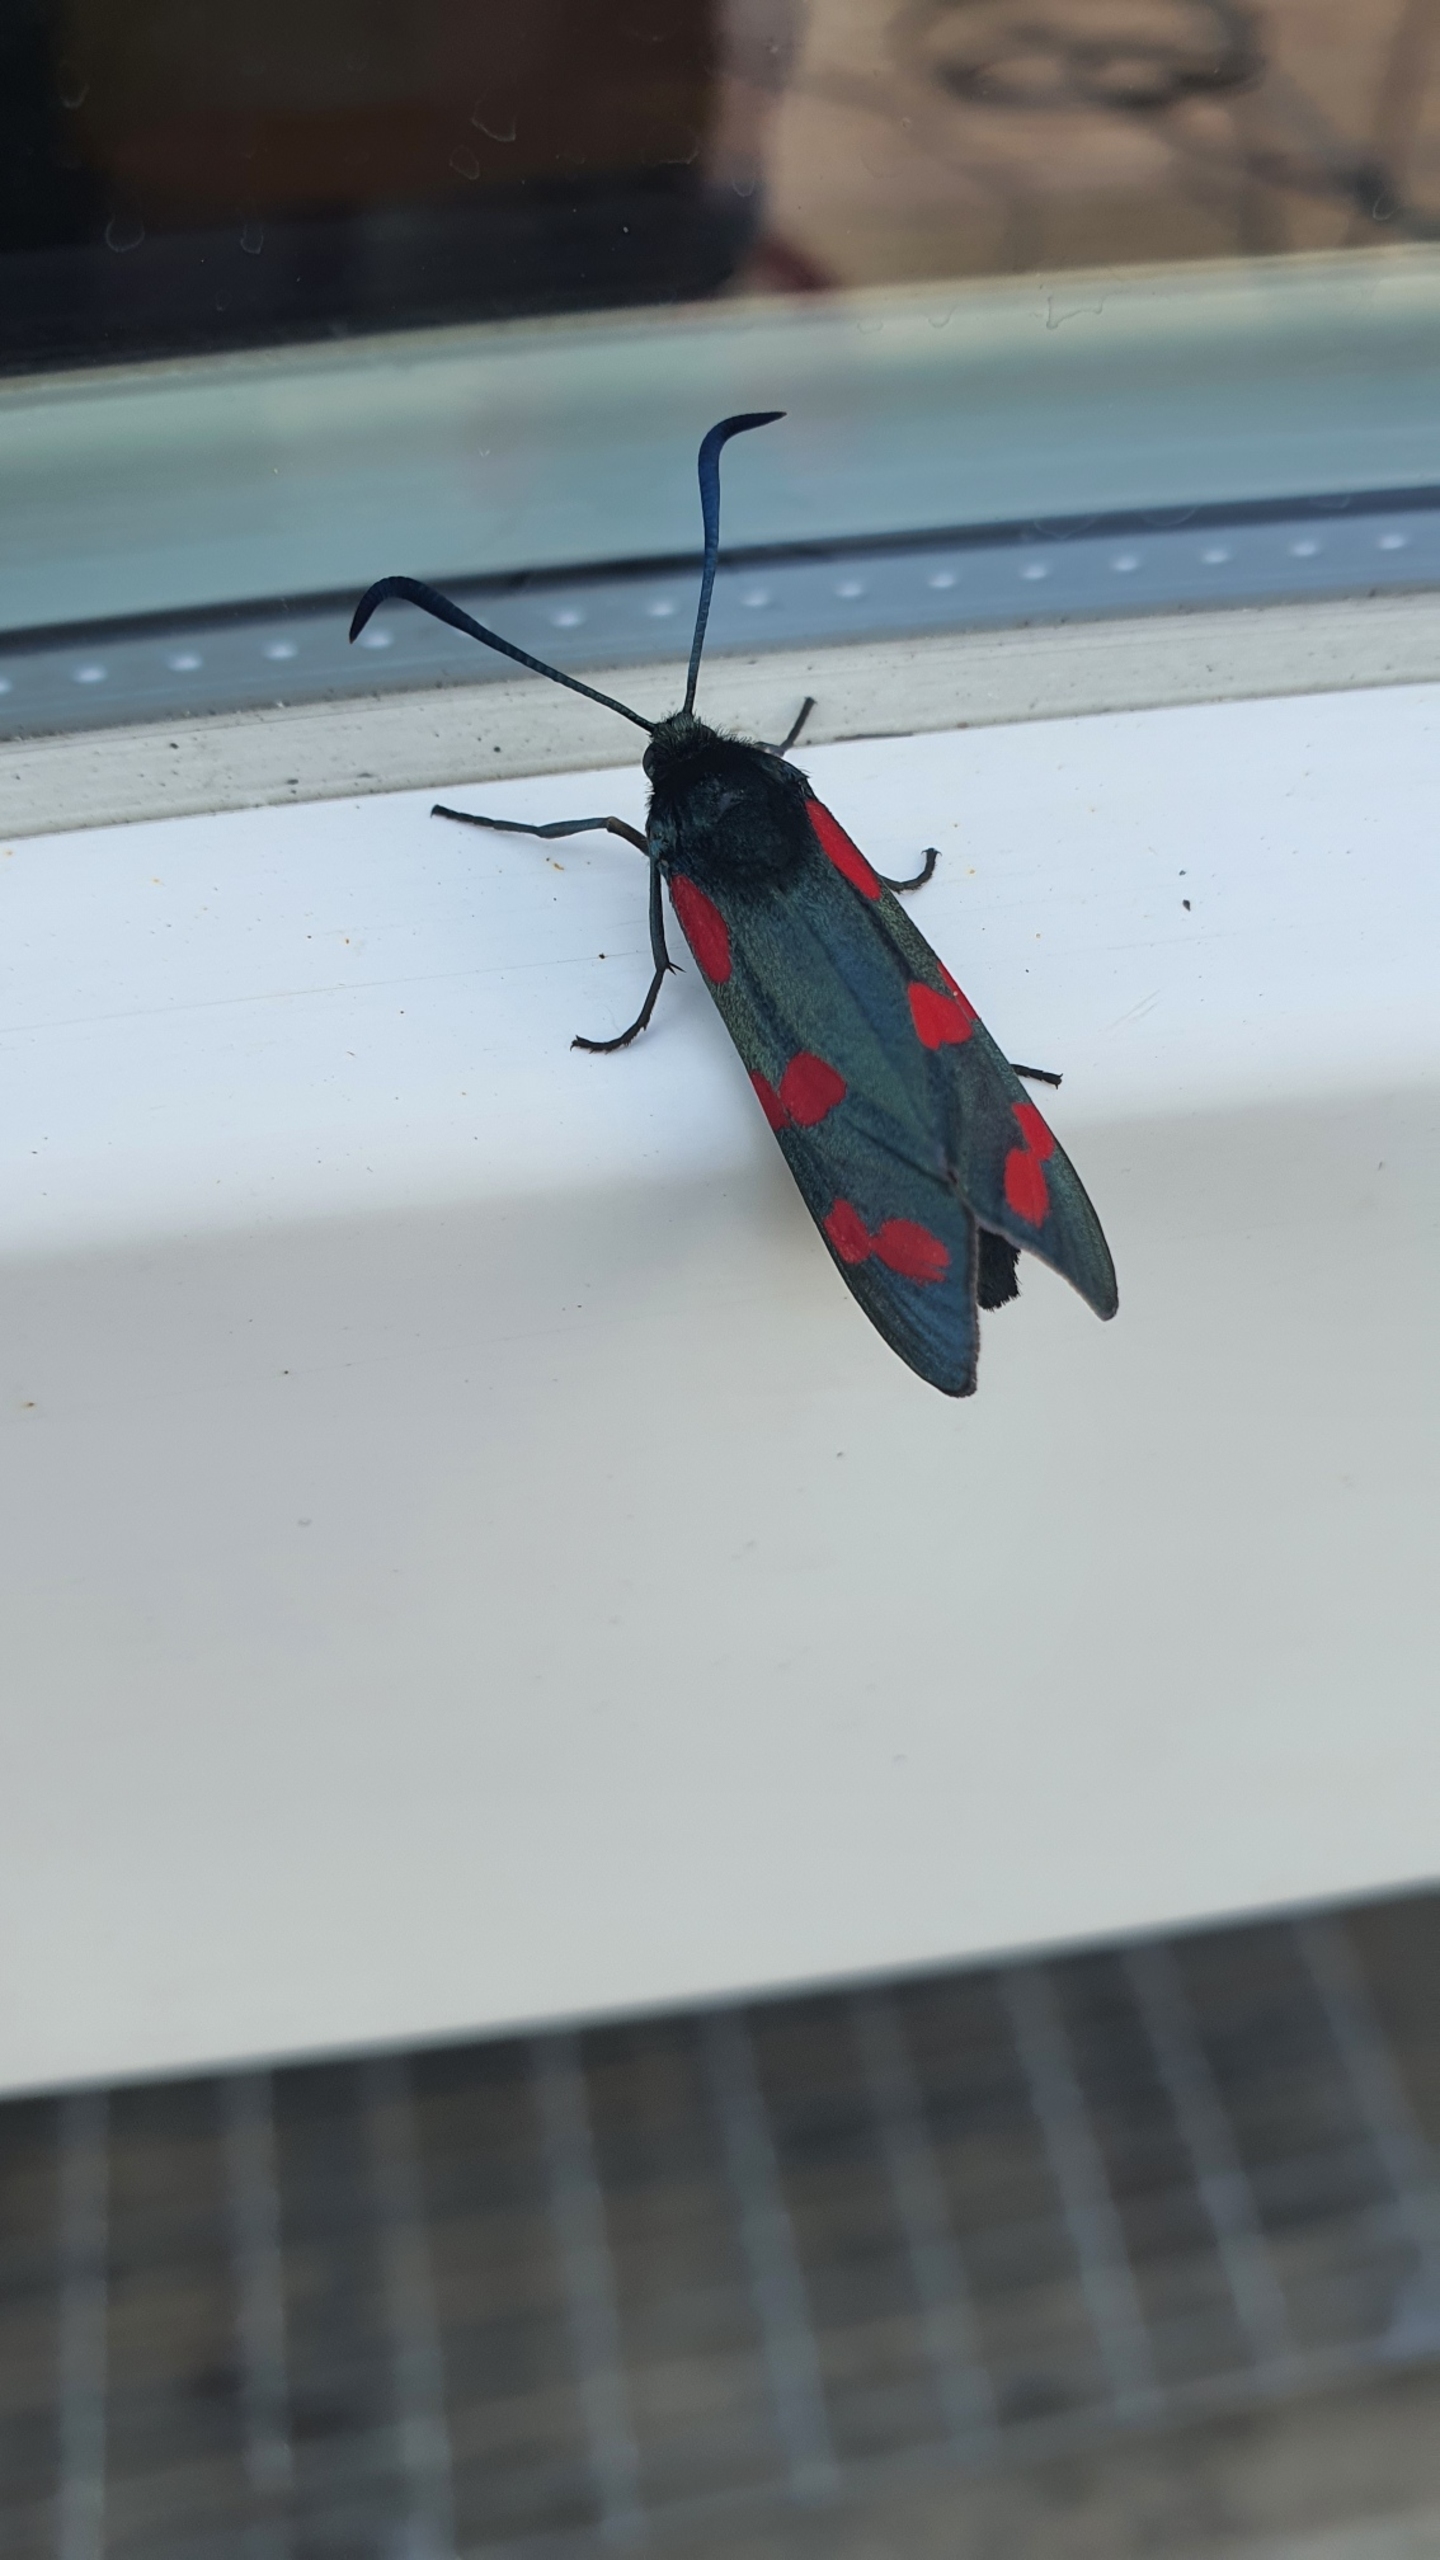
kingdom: Animalia
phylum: Arthropoda
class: Insecta
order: Lepidoptera
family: Zygaenidae
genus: Zygaena
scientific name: Zygaena filipendulae
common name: Seksplettet køllesværmer
